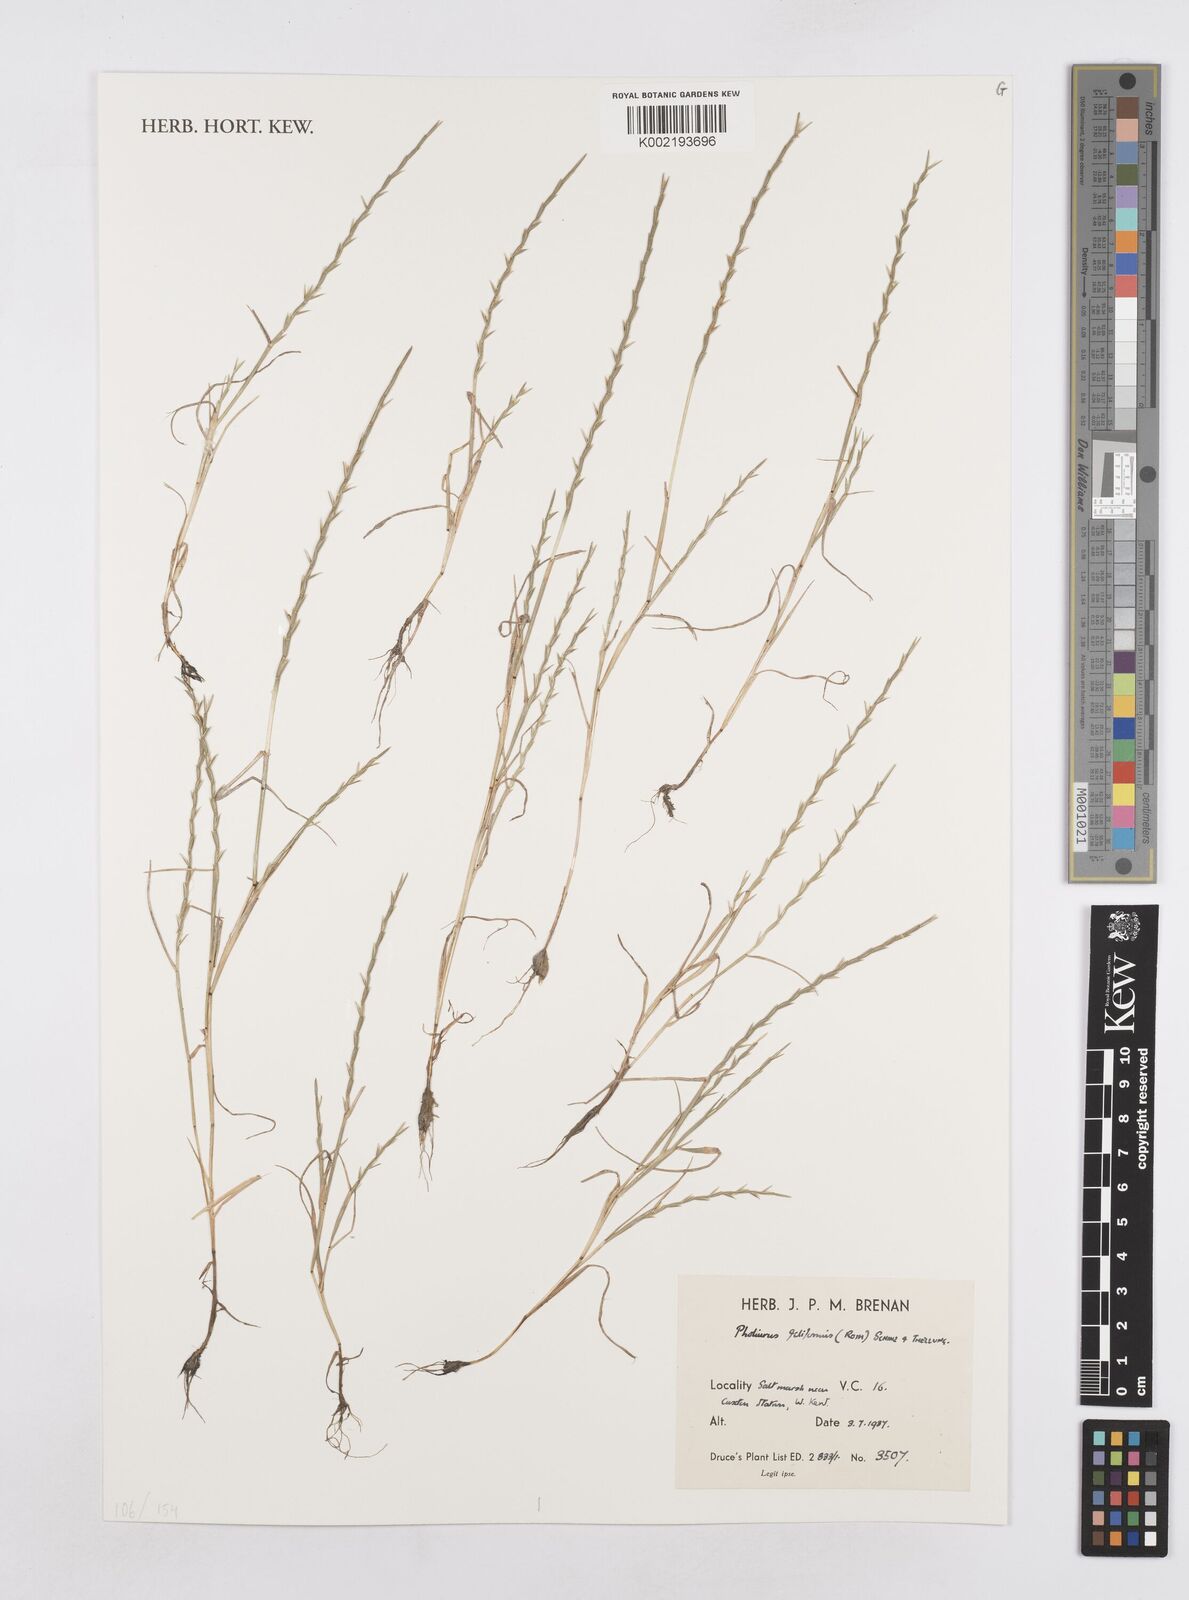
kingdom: Plantae
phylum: Tracheophyta
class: Liliopsida
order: Poales
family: Poaceae
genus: Parapholis
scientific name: Parapholis strigosa
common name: Hard-grass
